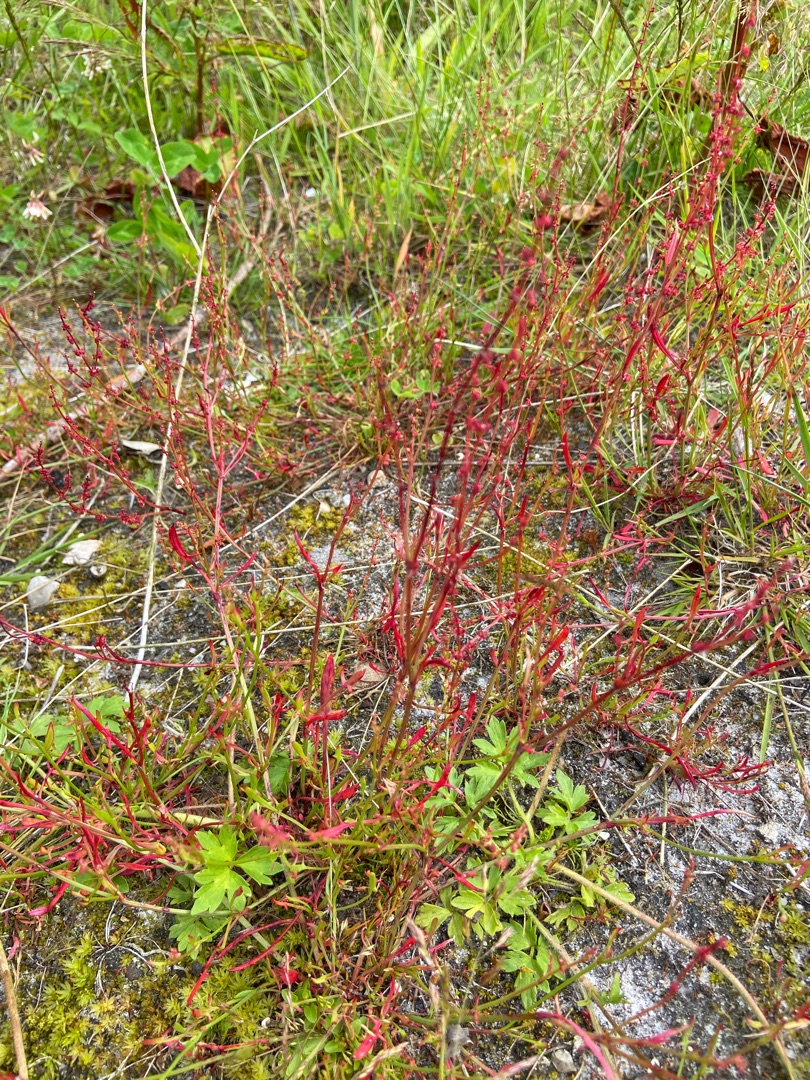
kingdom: Plantae
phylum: Tracheophyta
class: Magnoliopsida
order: Caryophyllales
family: Polygonaceae
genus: Rumex
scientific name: Rumex acetosella
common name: Rødknæ
